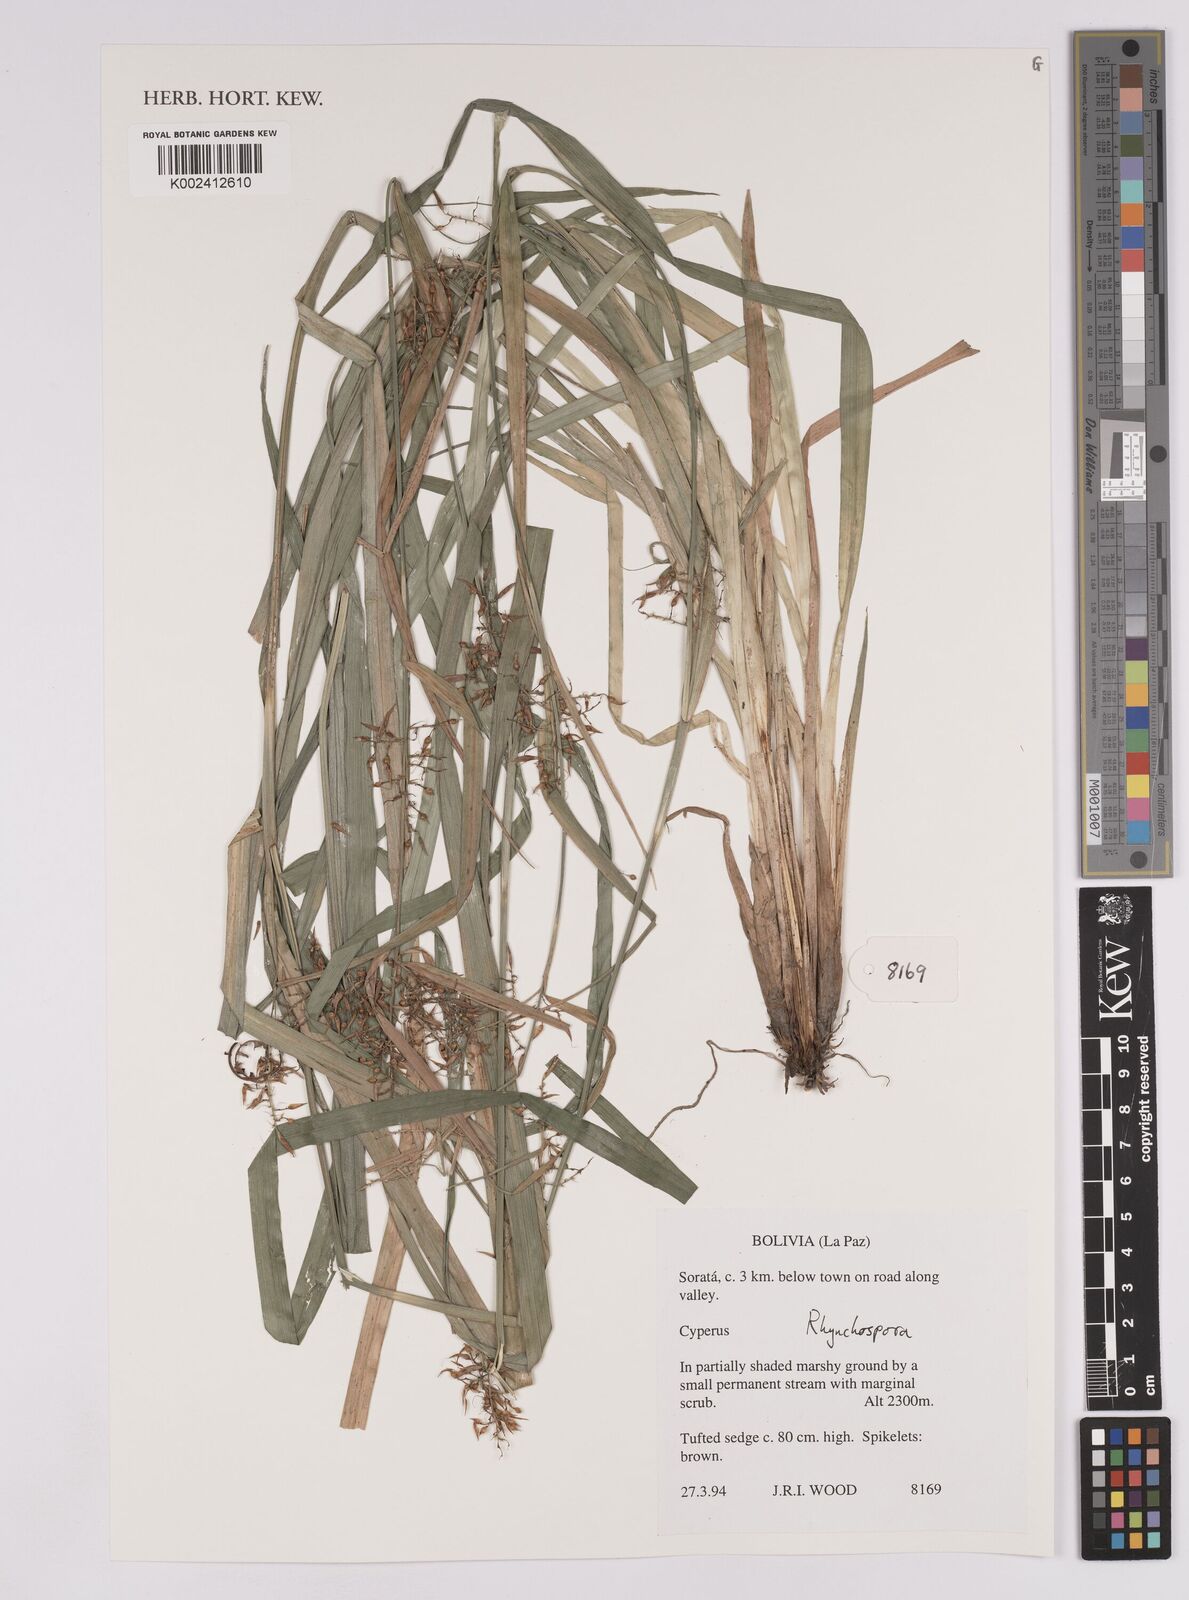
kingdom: Plantae
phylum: Tracheophyta
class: Liliopsida
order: Poales
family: Cyperaceae
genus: Rhynchospora
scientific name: Rhynchospora
